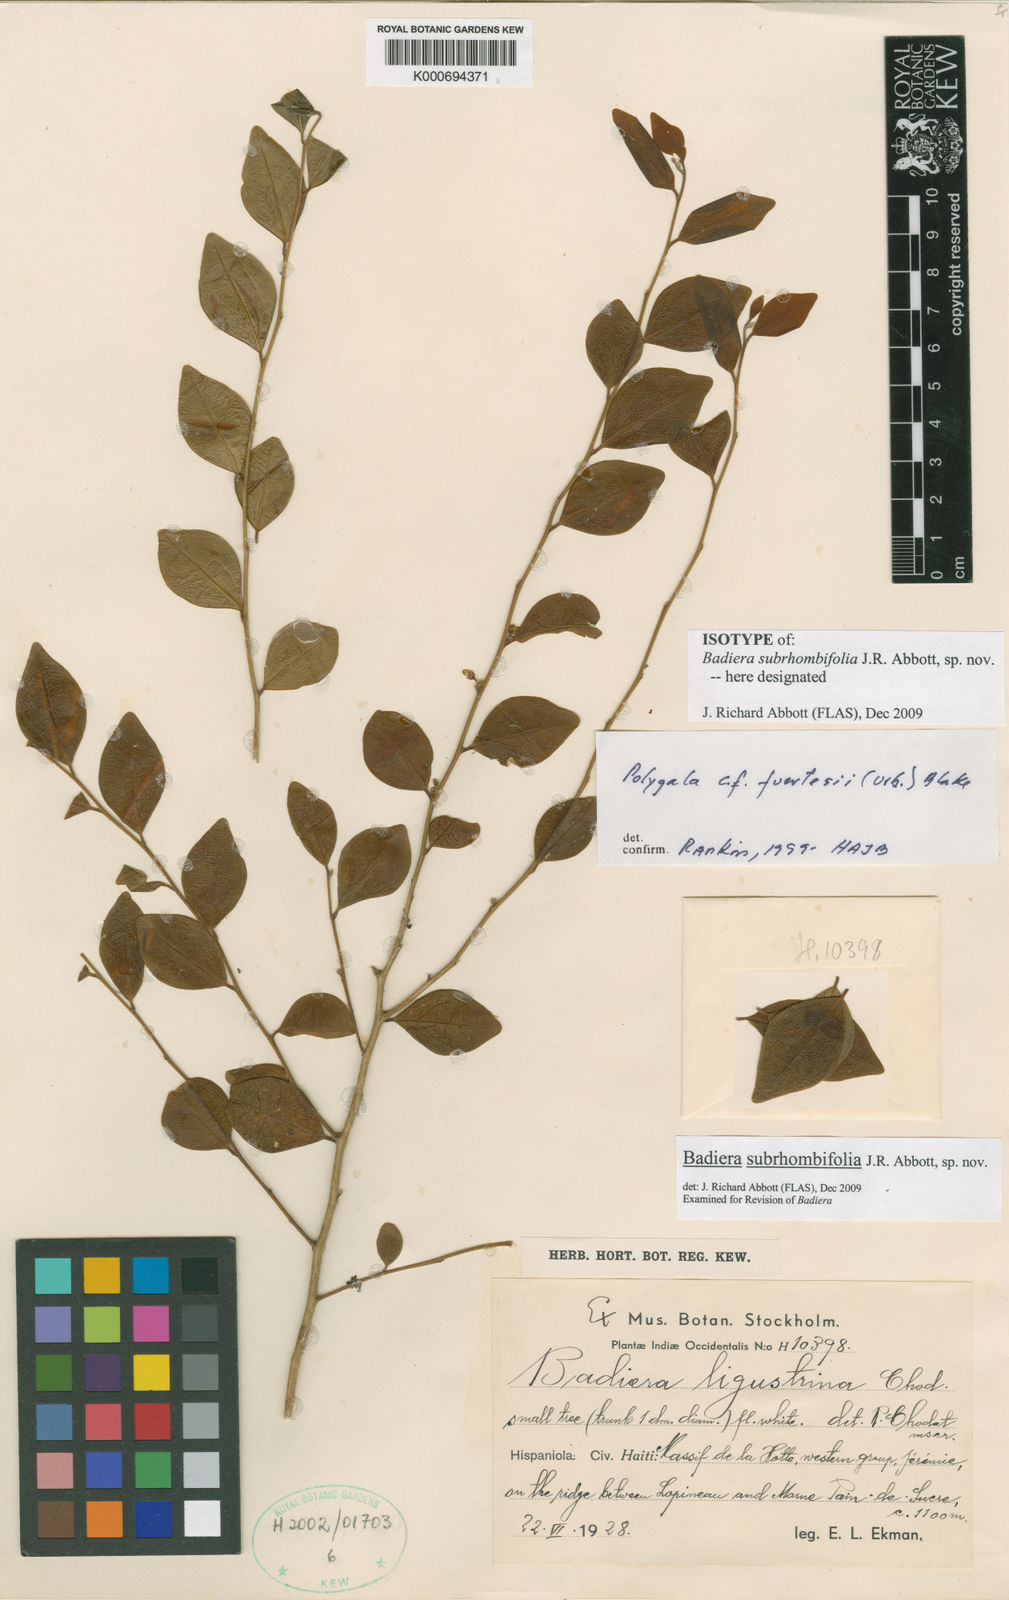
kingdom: Plantae
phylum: Tracheophyta
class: Magnoliopsida
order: Fabales
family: Polygalaceae
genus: Badiera
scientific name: Badiera
